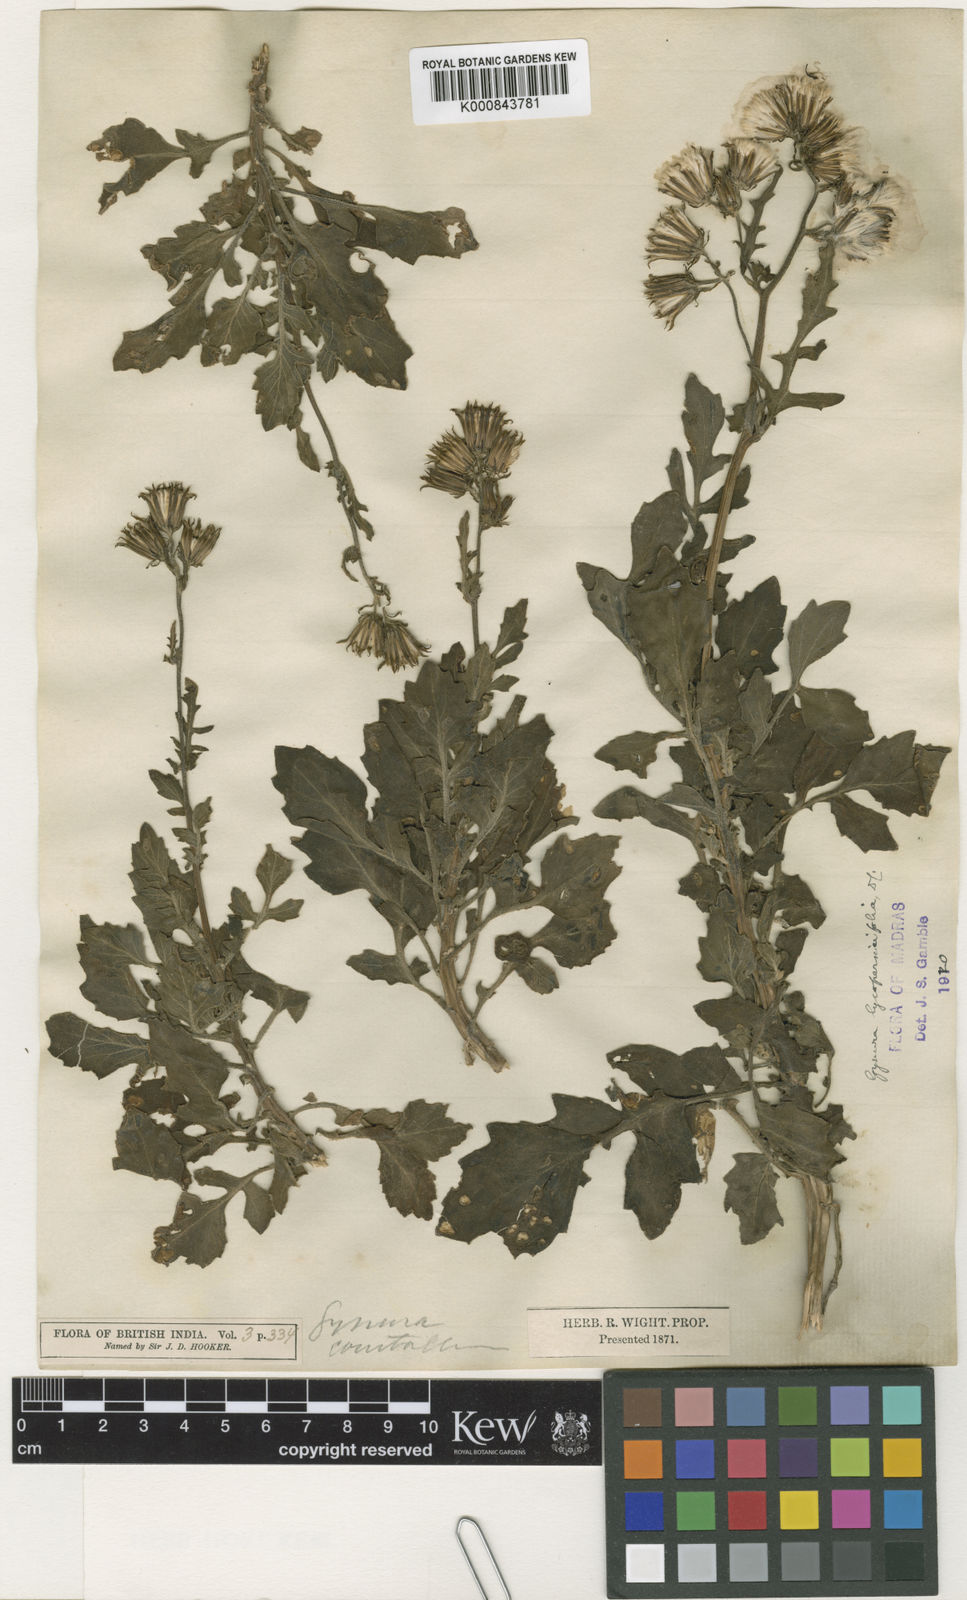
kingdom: Plantae
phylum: Tracheophyta
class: Magnoliopsida
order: Asterales
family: Asteraceae
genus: Gynura
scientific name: Gynura lycopersicifolia
